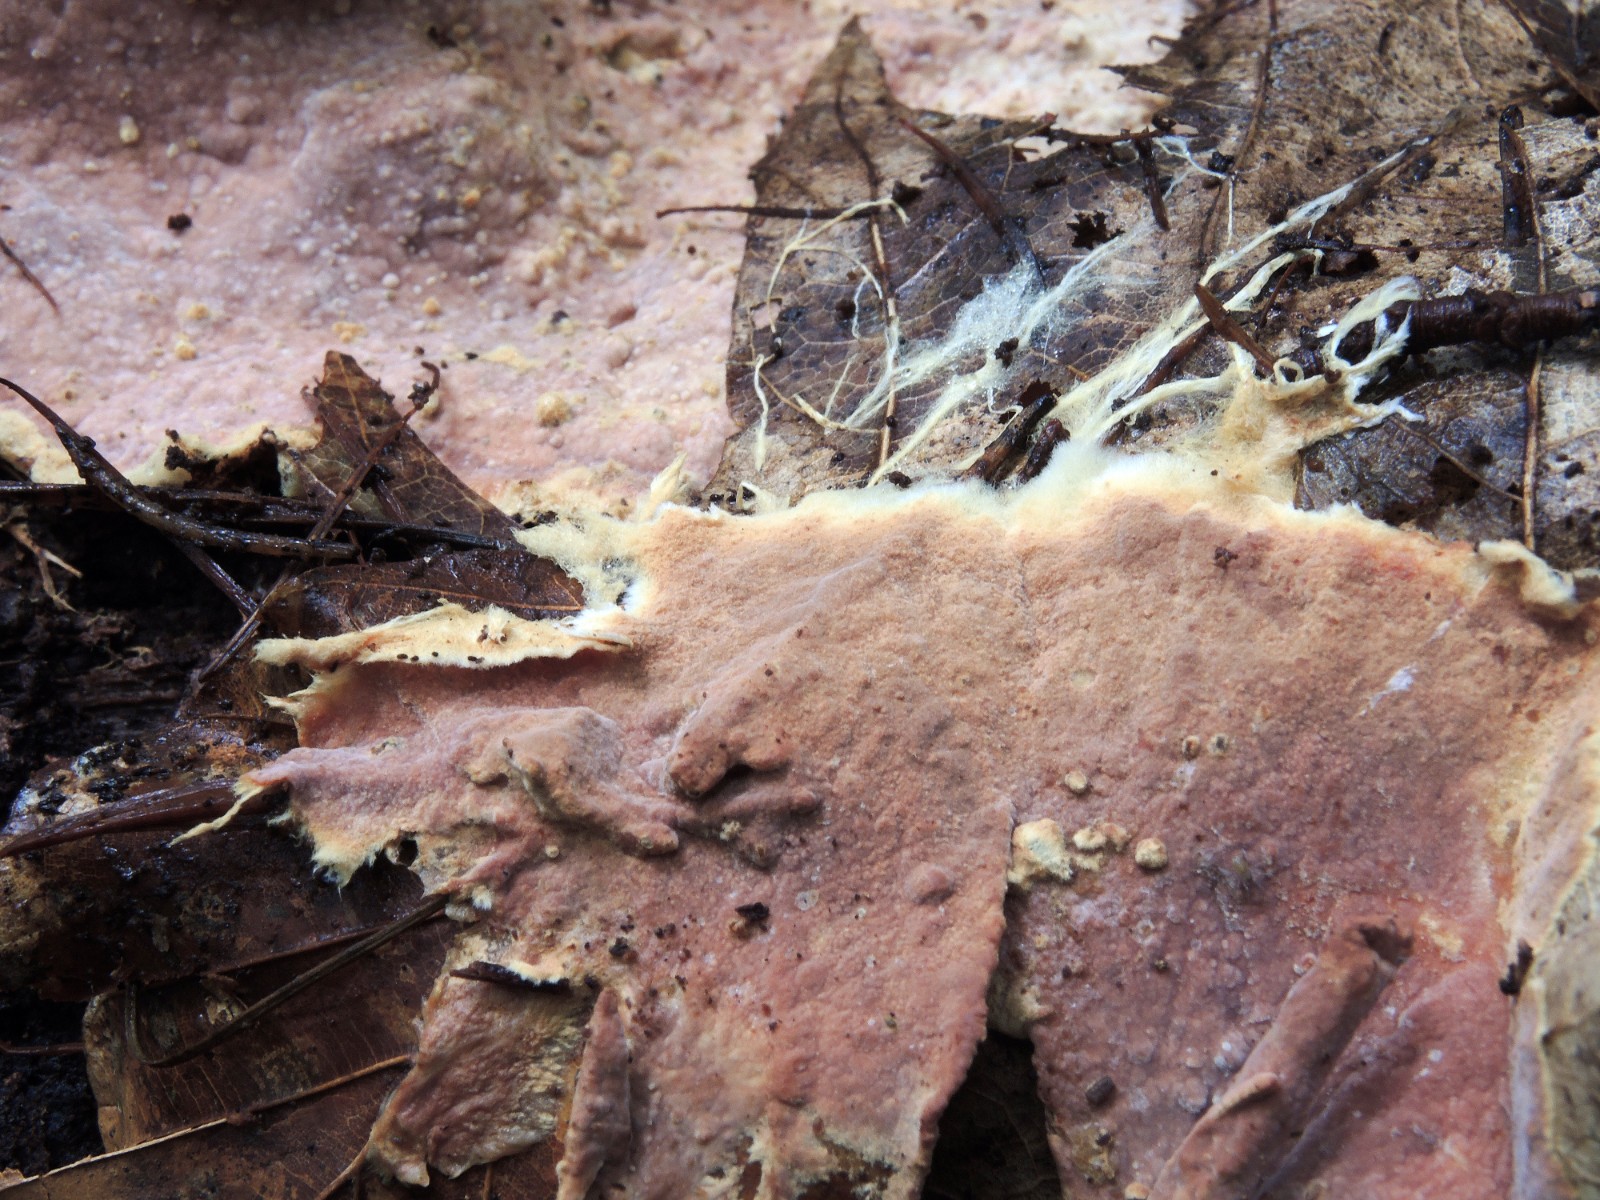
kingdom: Fungi
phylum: Basidiomycota
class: Agaricomycetes
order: Polyporales
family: Phanerochaetaceae
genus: Rhizochaete
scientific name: Rhizochaete radicata
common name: orangebrun randtråd
